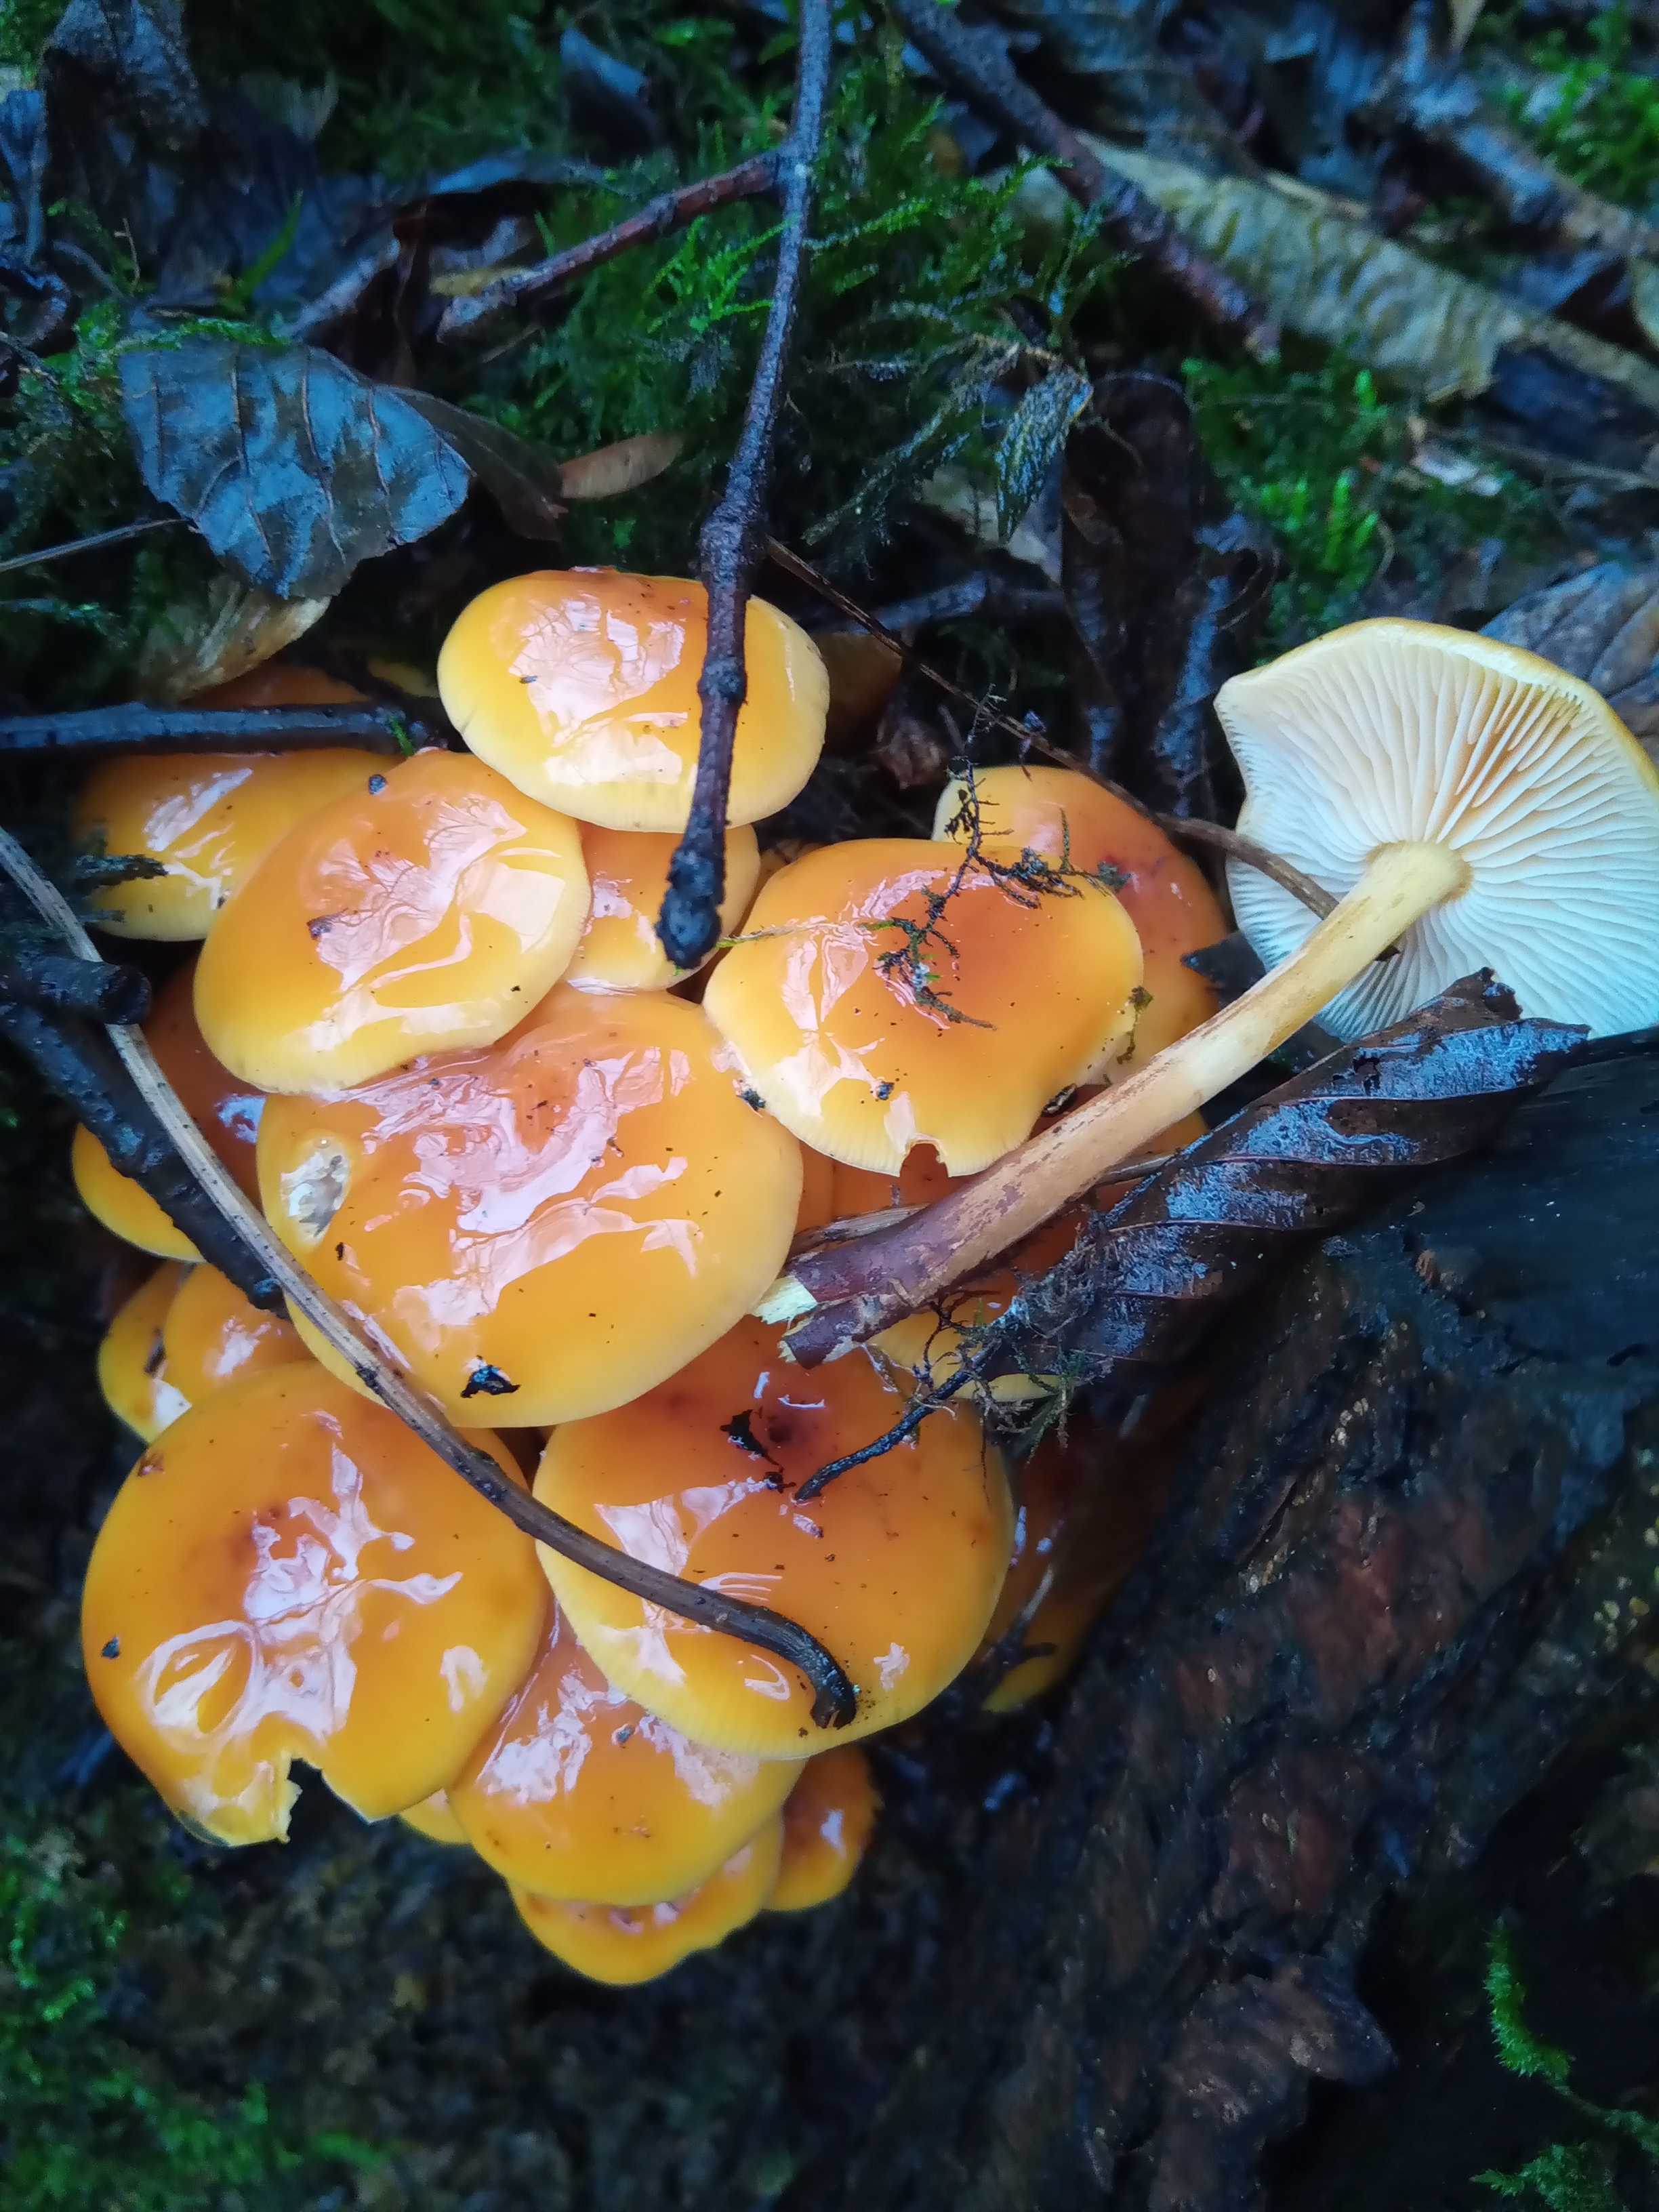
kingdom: Fungi
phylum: Basidiomycota
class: Agaricomycetes
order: Agaricales
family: Physalacriaceae
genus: Flammulina
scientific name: Flammulina
